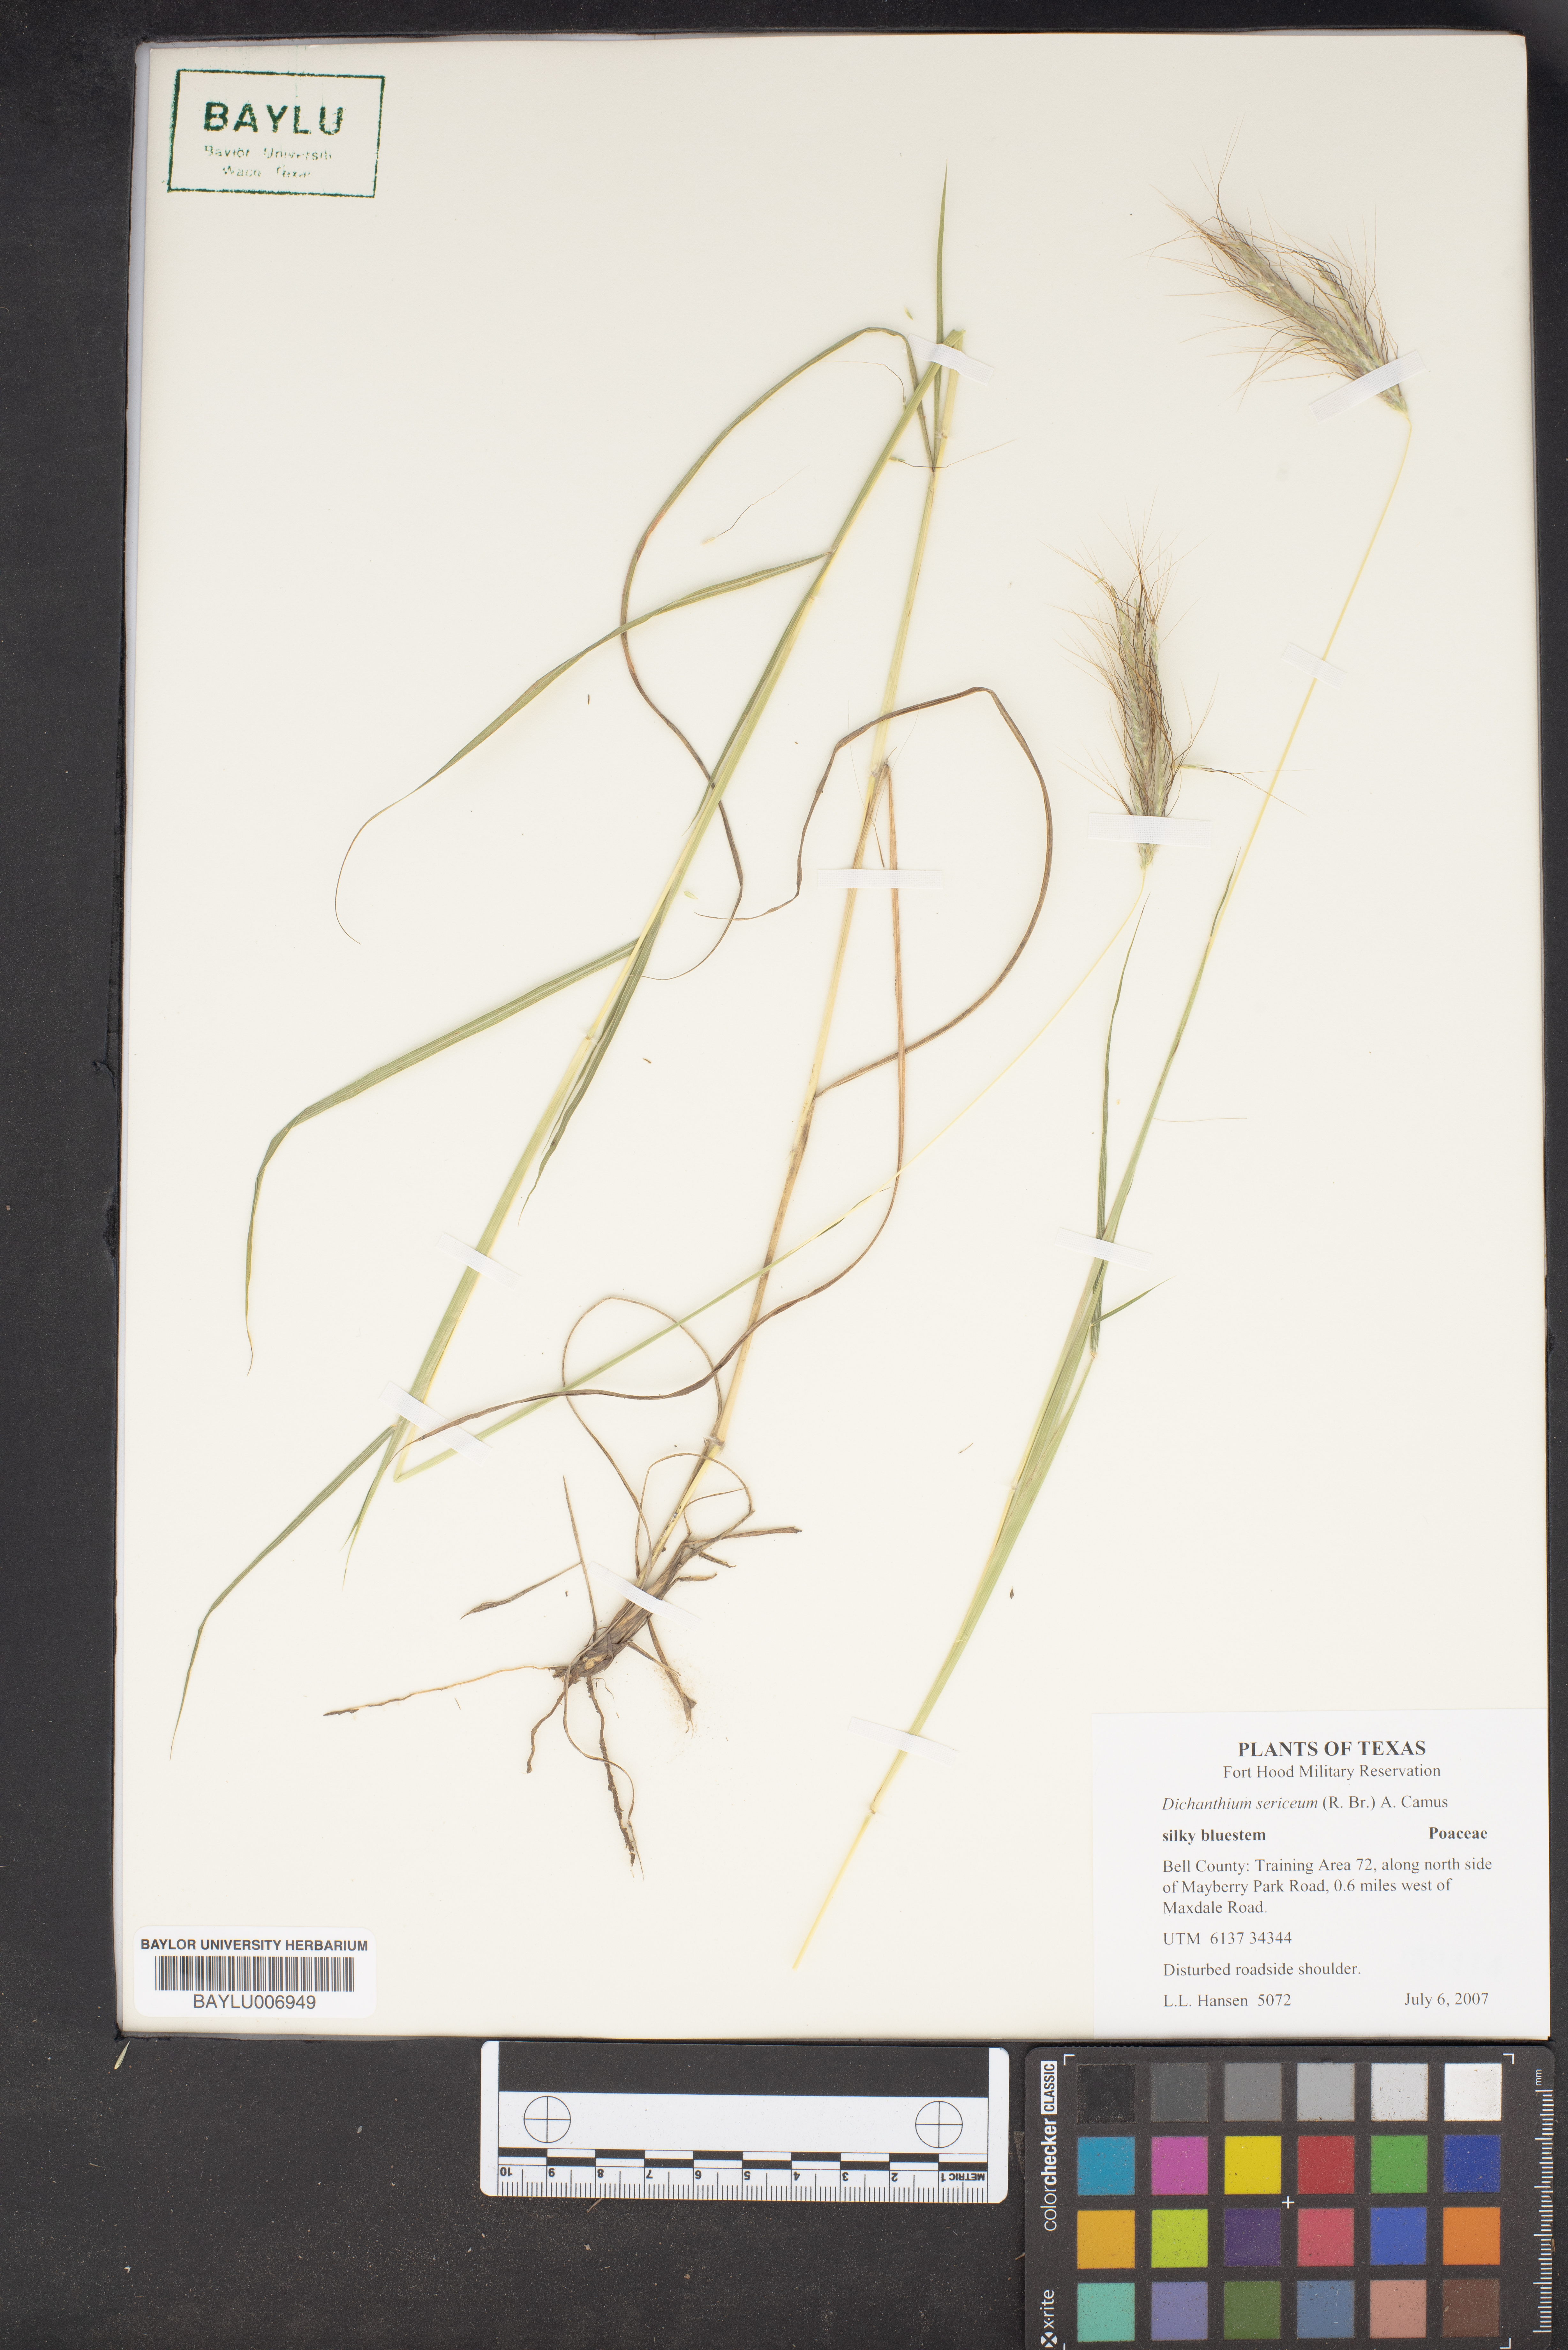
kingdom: Plantae
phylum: Tracheophyta
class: Liliopsida
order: Poales
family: Poaceae
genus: Dichanthium
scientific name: Dichanthium sericeum
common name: Silky bluestem
